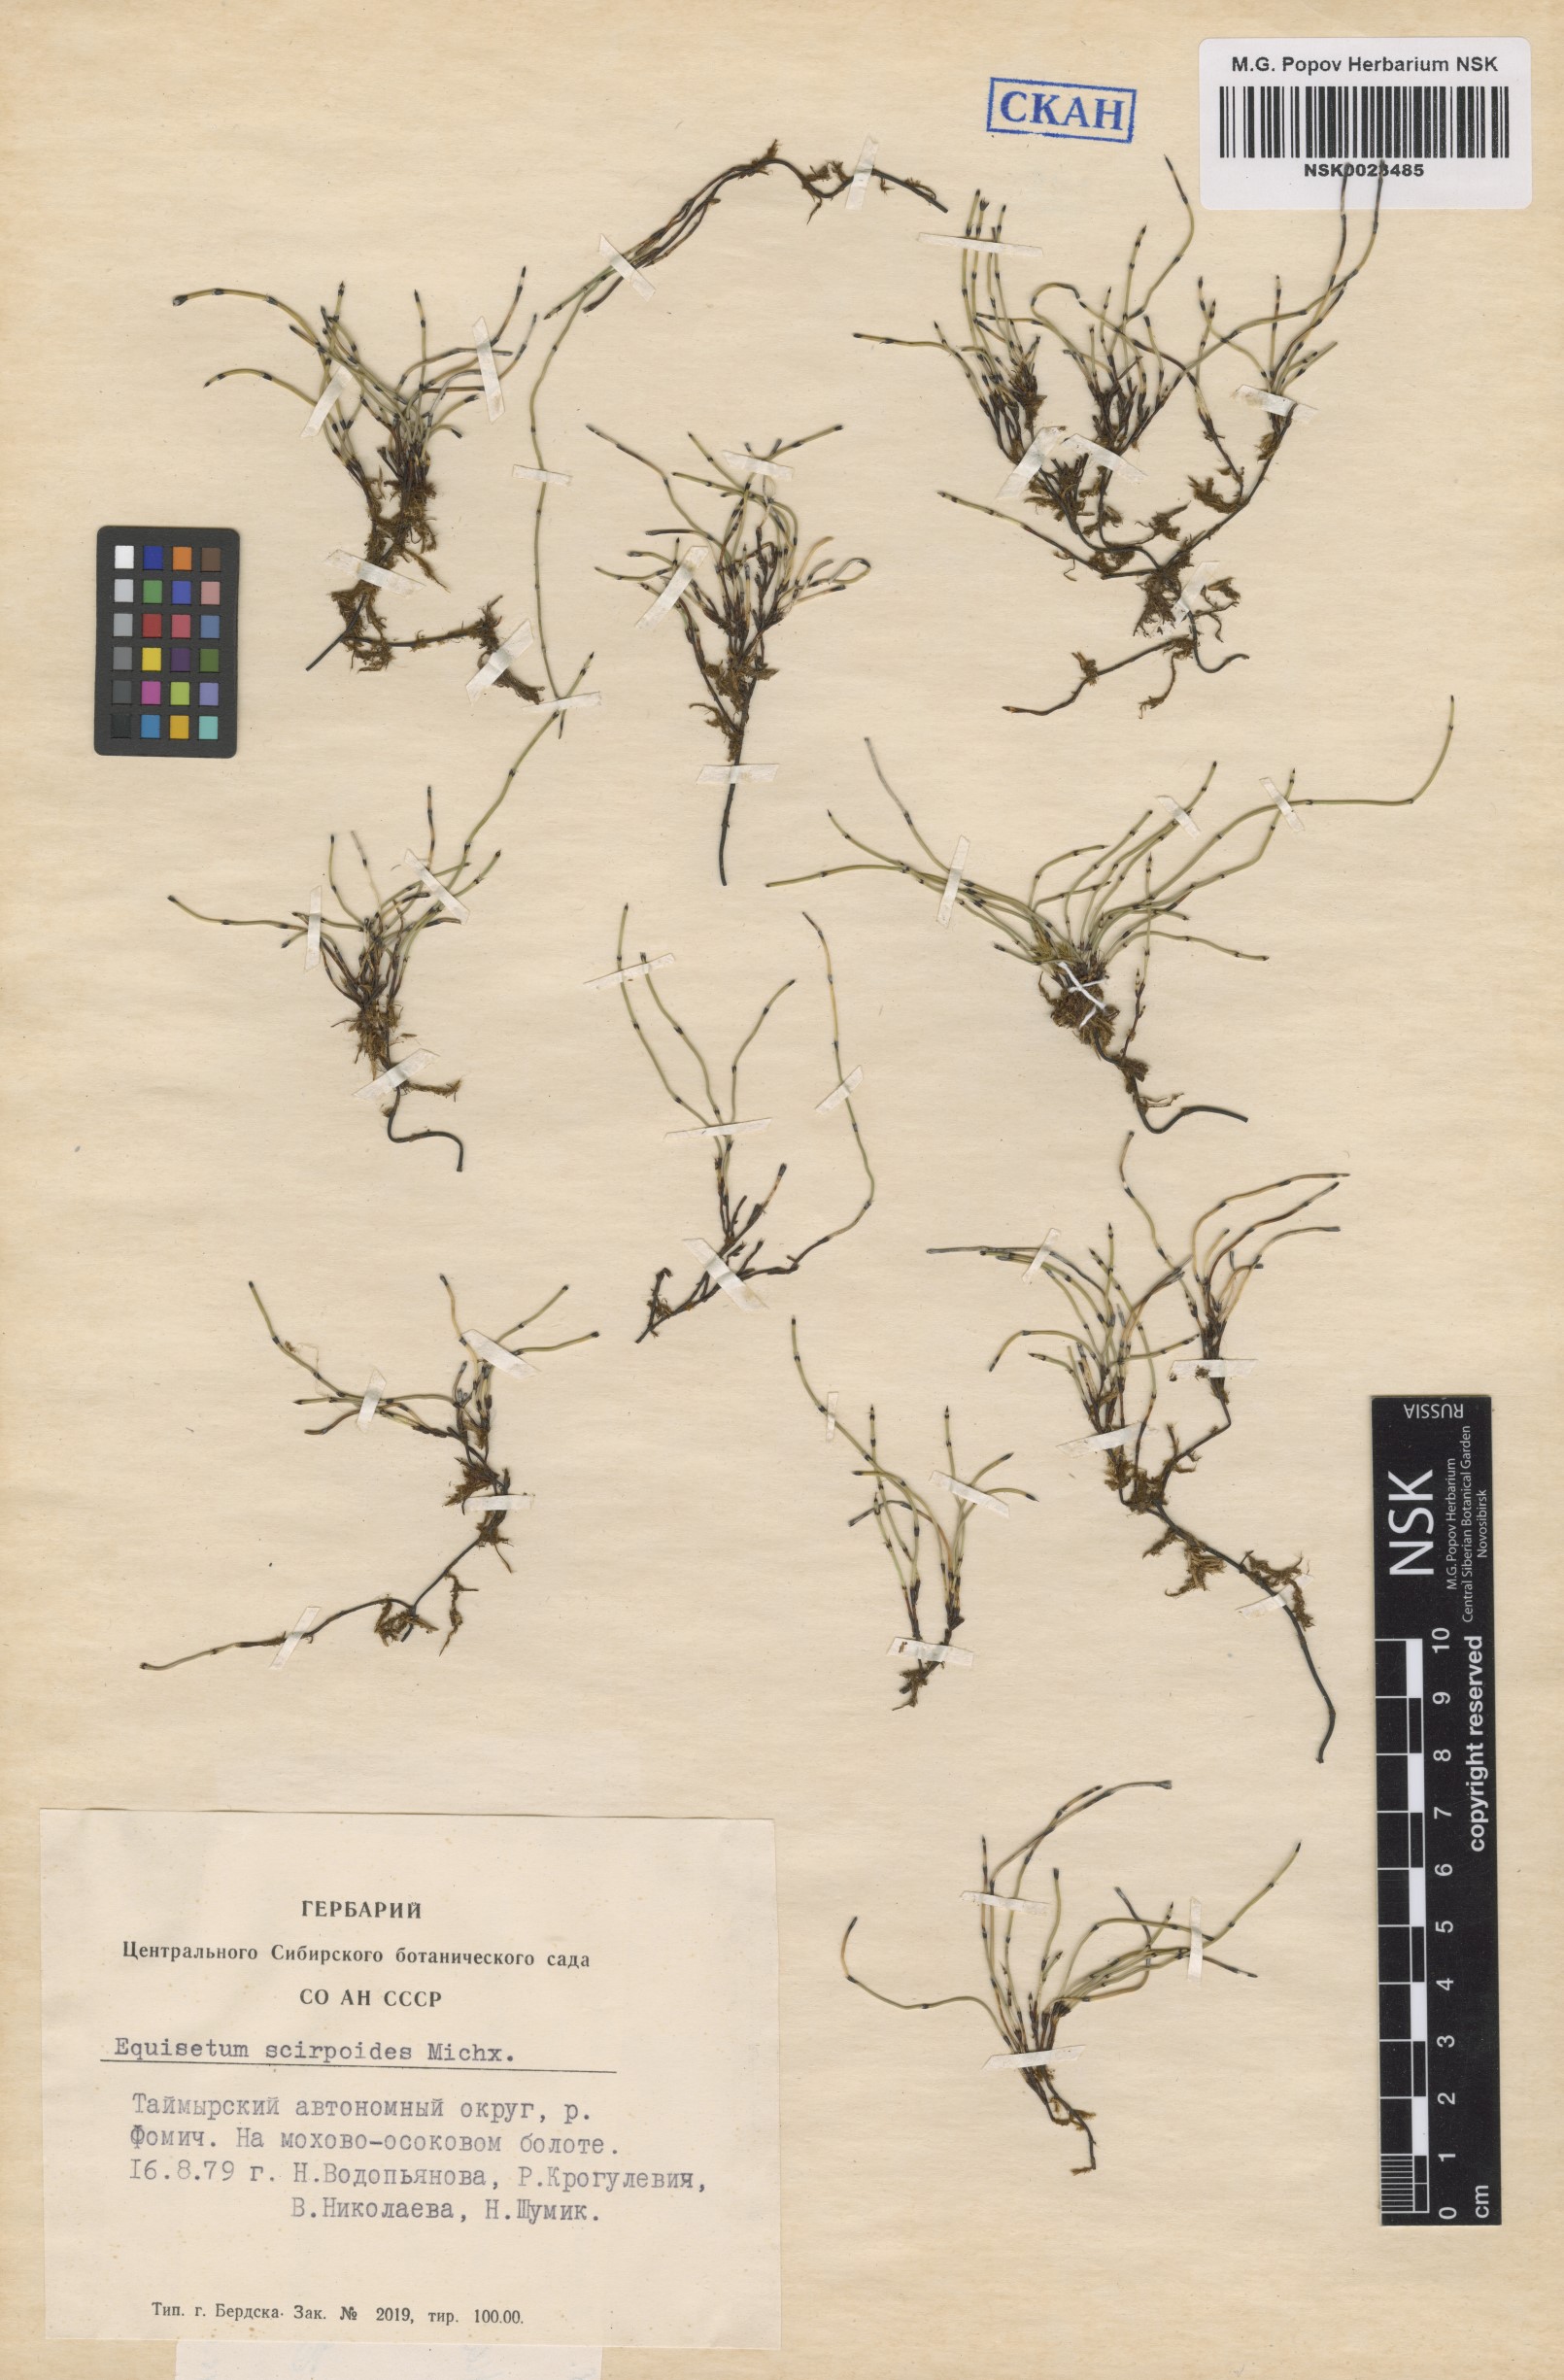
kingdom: Plantae
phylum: Tracheophyta
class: Polypodiopsida
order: Equisetales
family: Equisetaceae
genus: Equisetum
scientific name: Equisetum scirpoides
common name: Delicate horsetail
